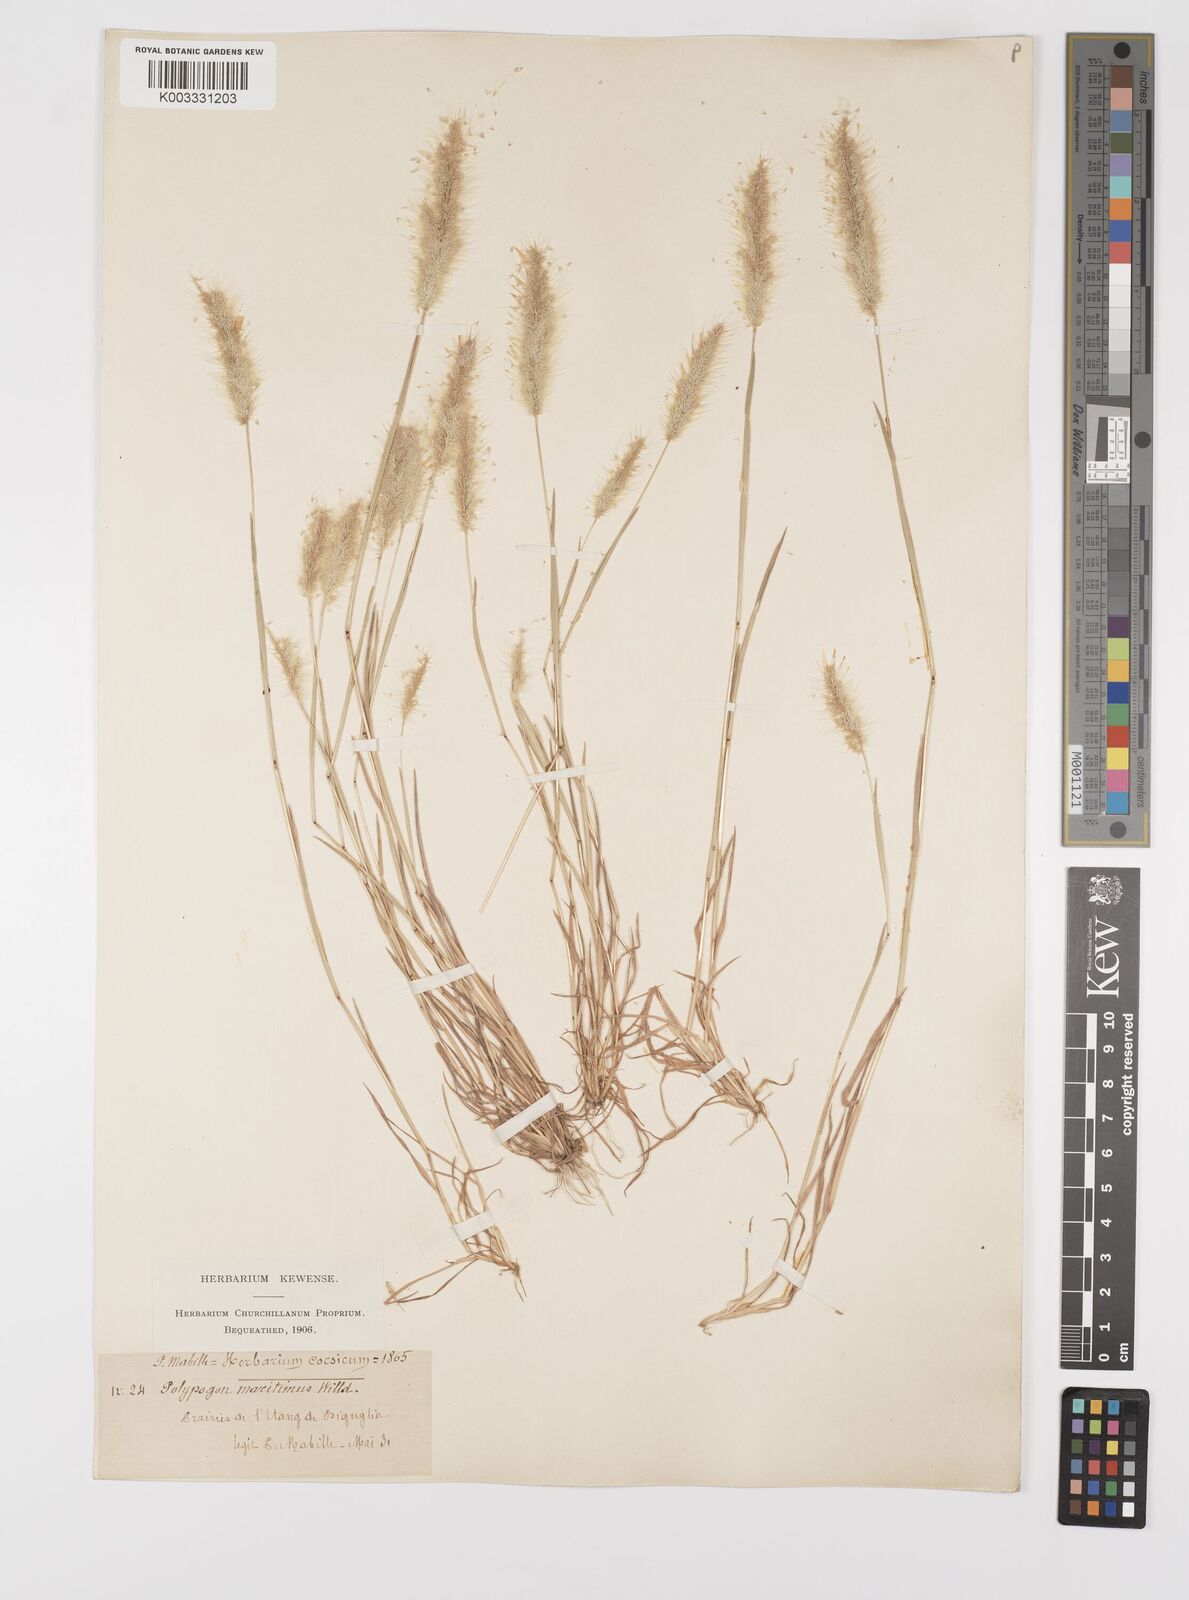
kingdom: Plantae
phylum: Tracheophyta
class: Liliopsida
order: Poales
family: Poaceae
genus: Polypogon
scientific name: Polypogon maritimus
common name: Mediterranean rabbitsfoot grass
